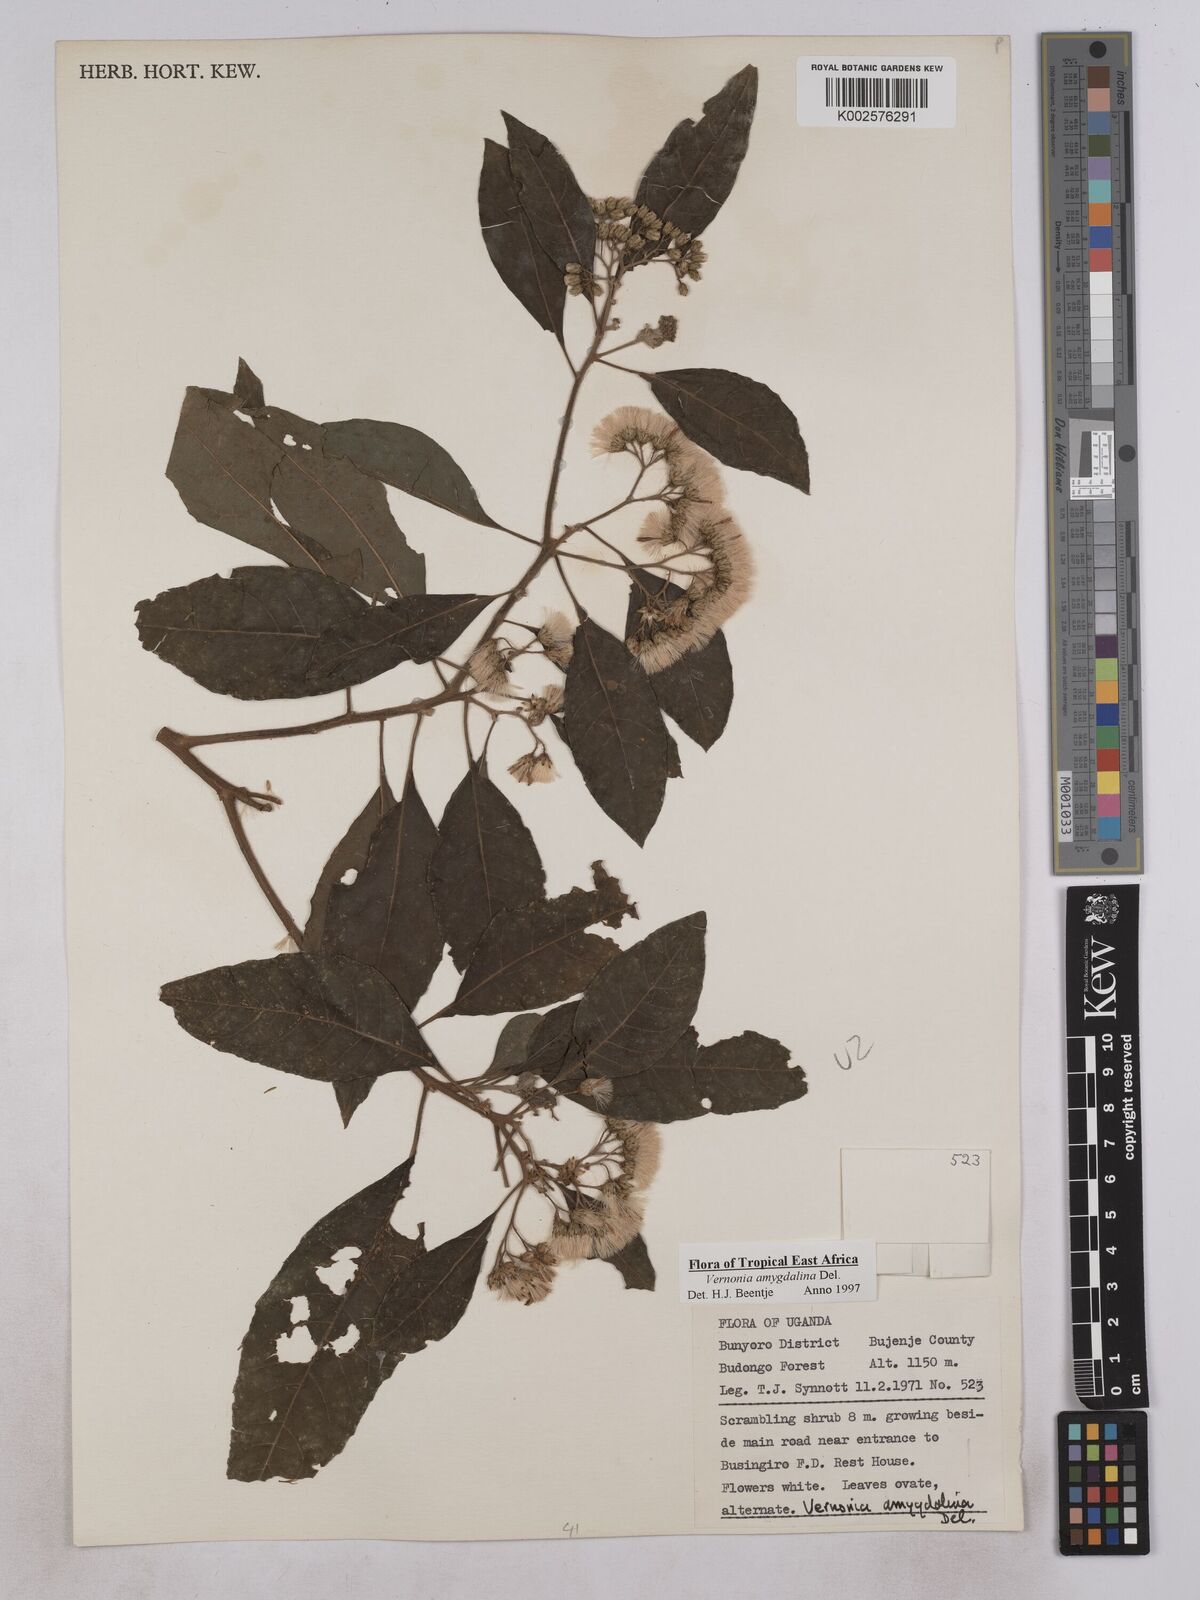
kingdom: Plantae
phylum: Tracheophyta
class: Magnoliopsida
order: Asterales
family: Asteraceae
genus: Gymnanthemum
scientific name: Gymnanthemum amygdalinum
